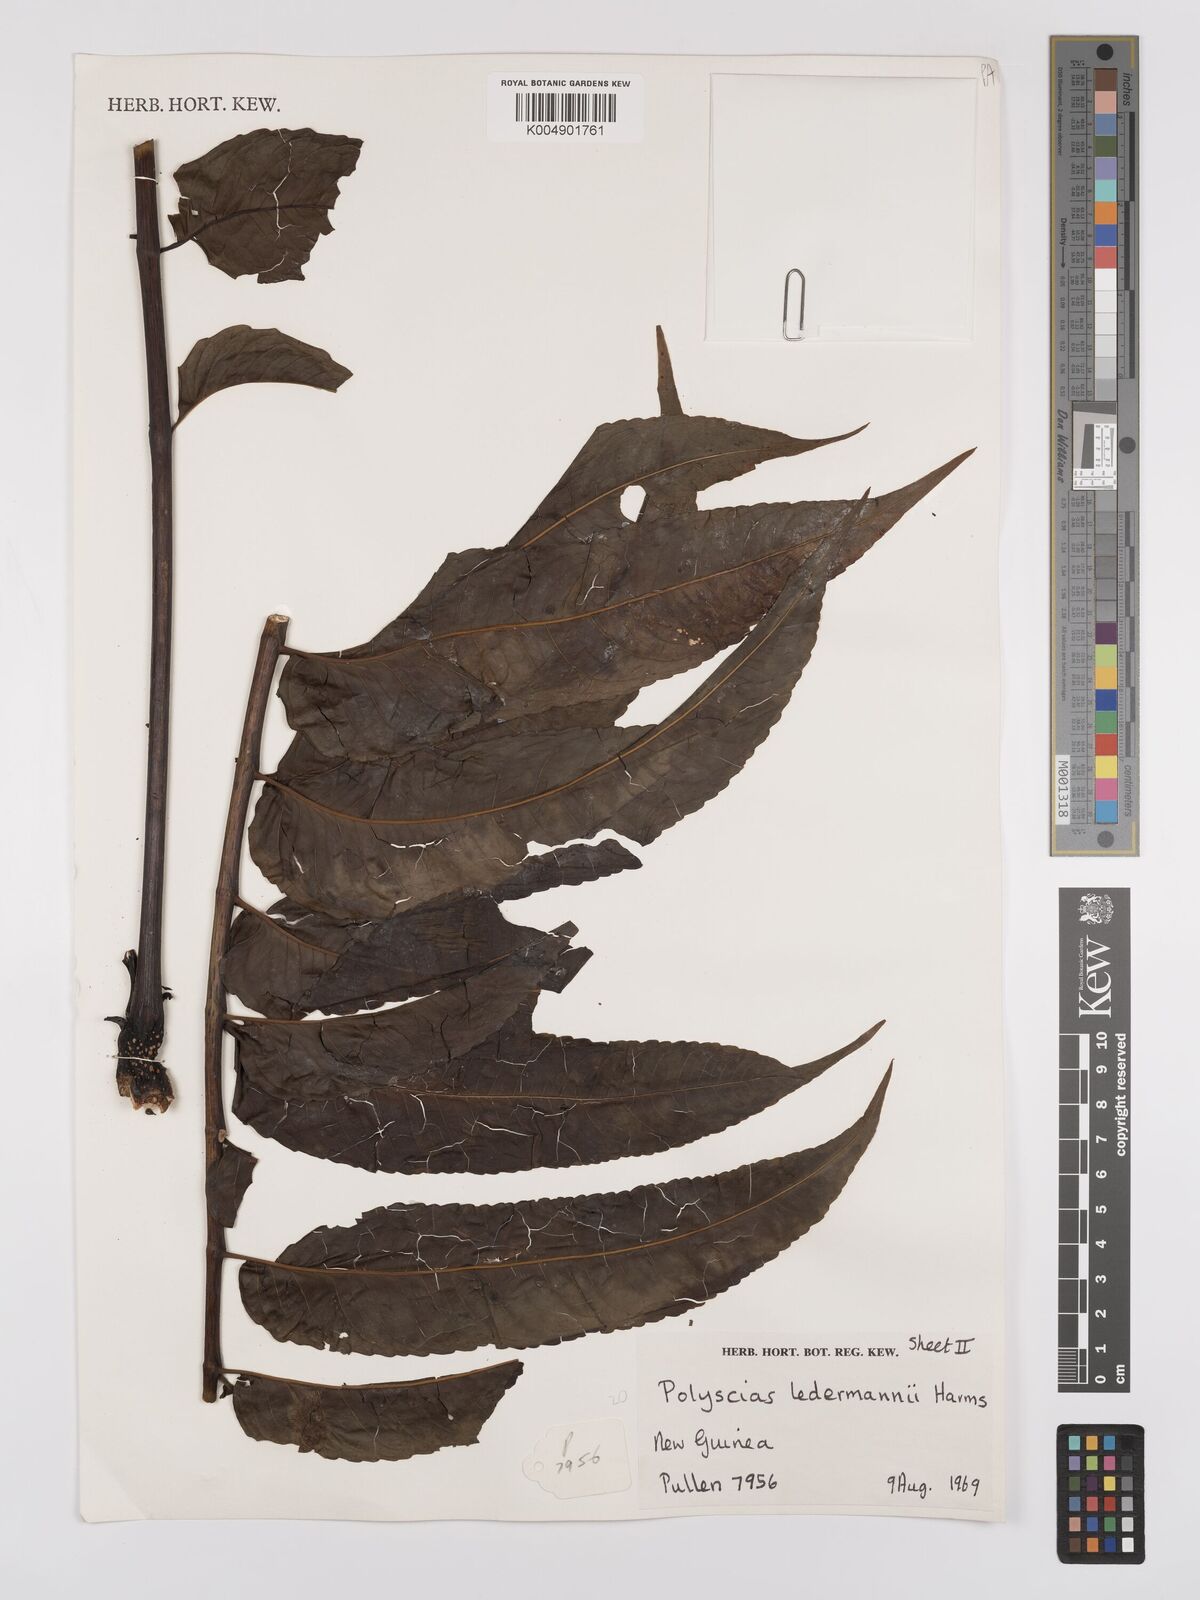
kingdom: Plantae
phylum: Tracheophyta
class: Magnoliopsida
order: Apiales
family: Araliaceae
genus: Polyscias
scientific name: Polyscias ledermannii
